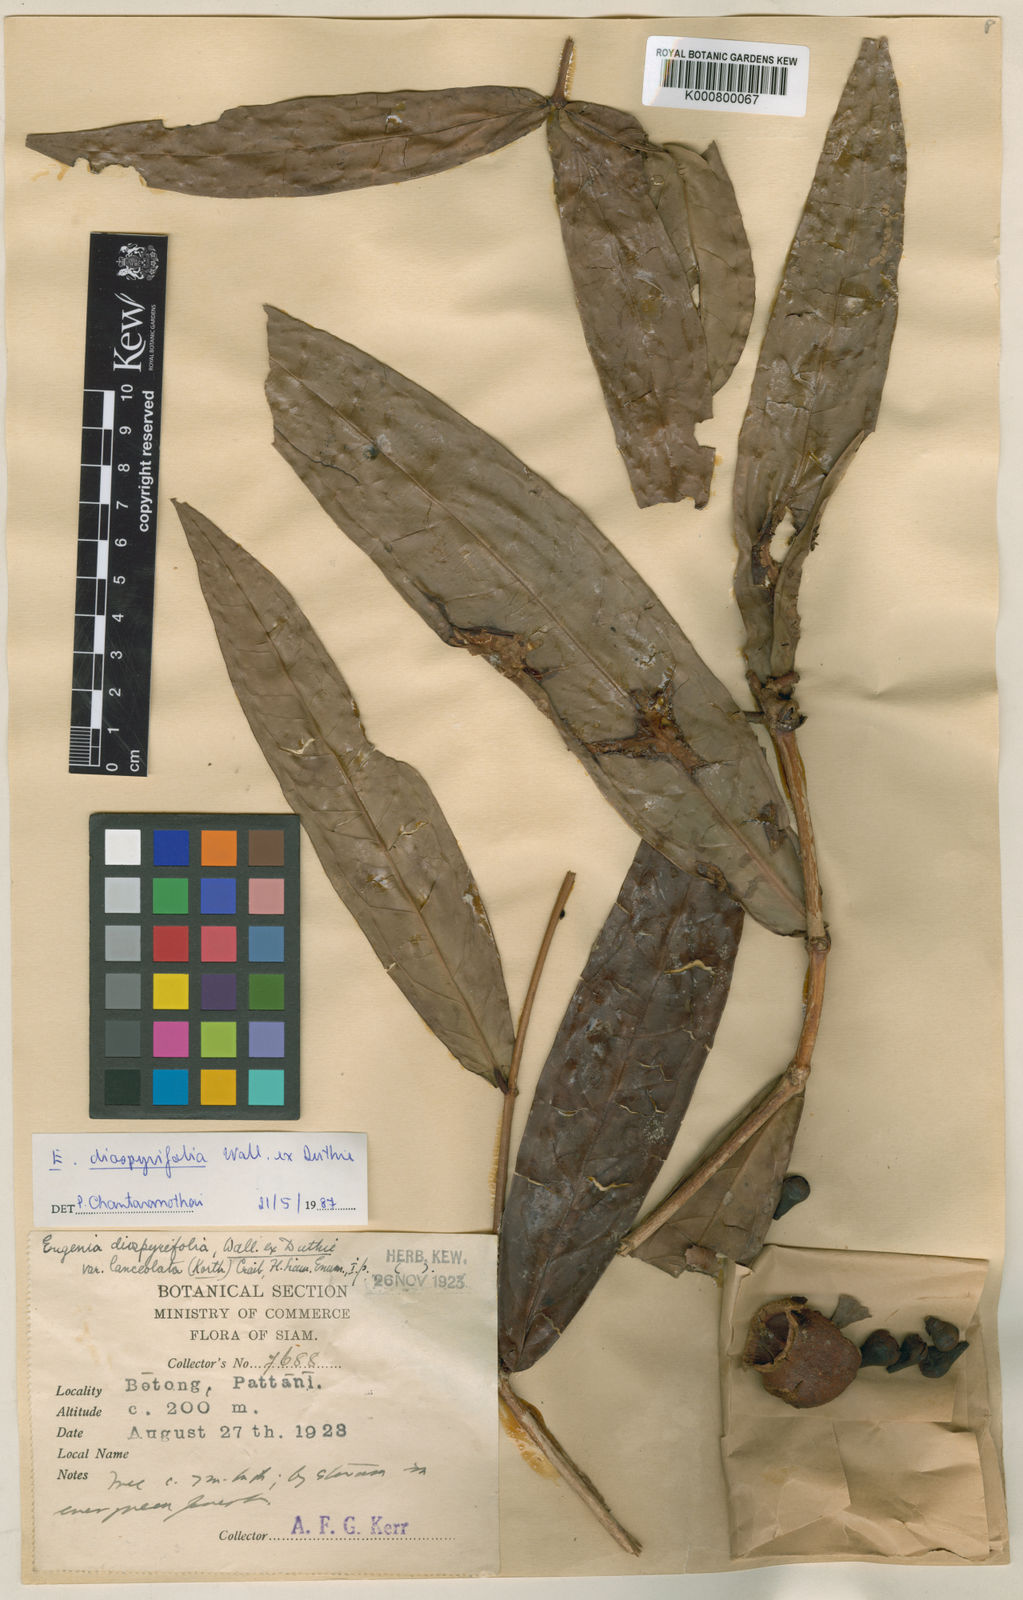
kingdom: Plantae
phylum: Tracheophyta
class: Magnoliopsida
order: Myrtales
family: Myrtaceae
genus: Syzygium
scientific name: Syzygium diospyrifolium
